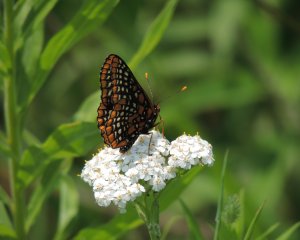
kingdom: Animalia
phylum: Arthropoda
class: Insecta
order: Lepidoptera
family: Nymphalidae
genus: Euphydryas
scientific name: Euphydryas phaeton
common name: Baltimore Checkerspot
